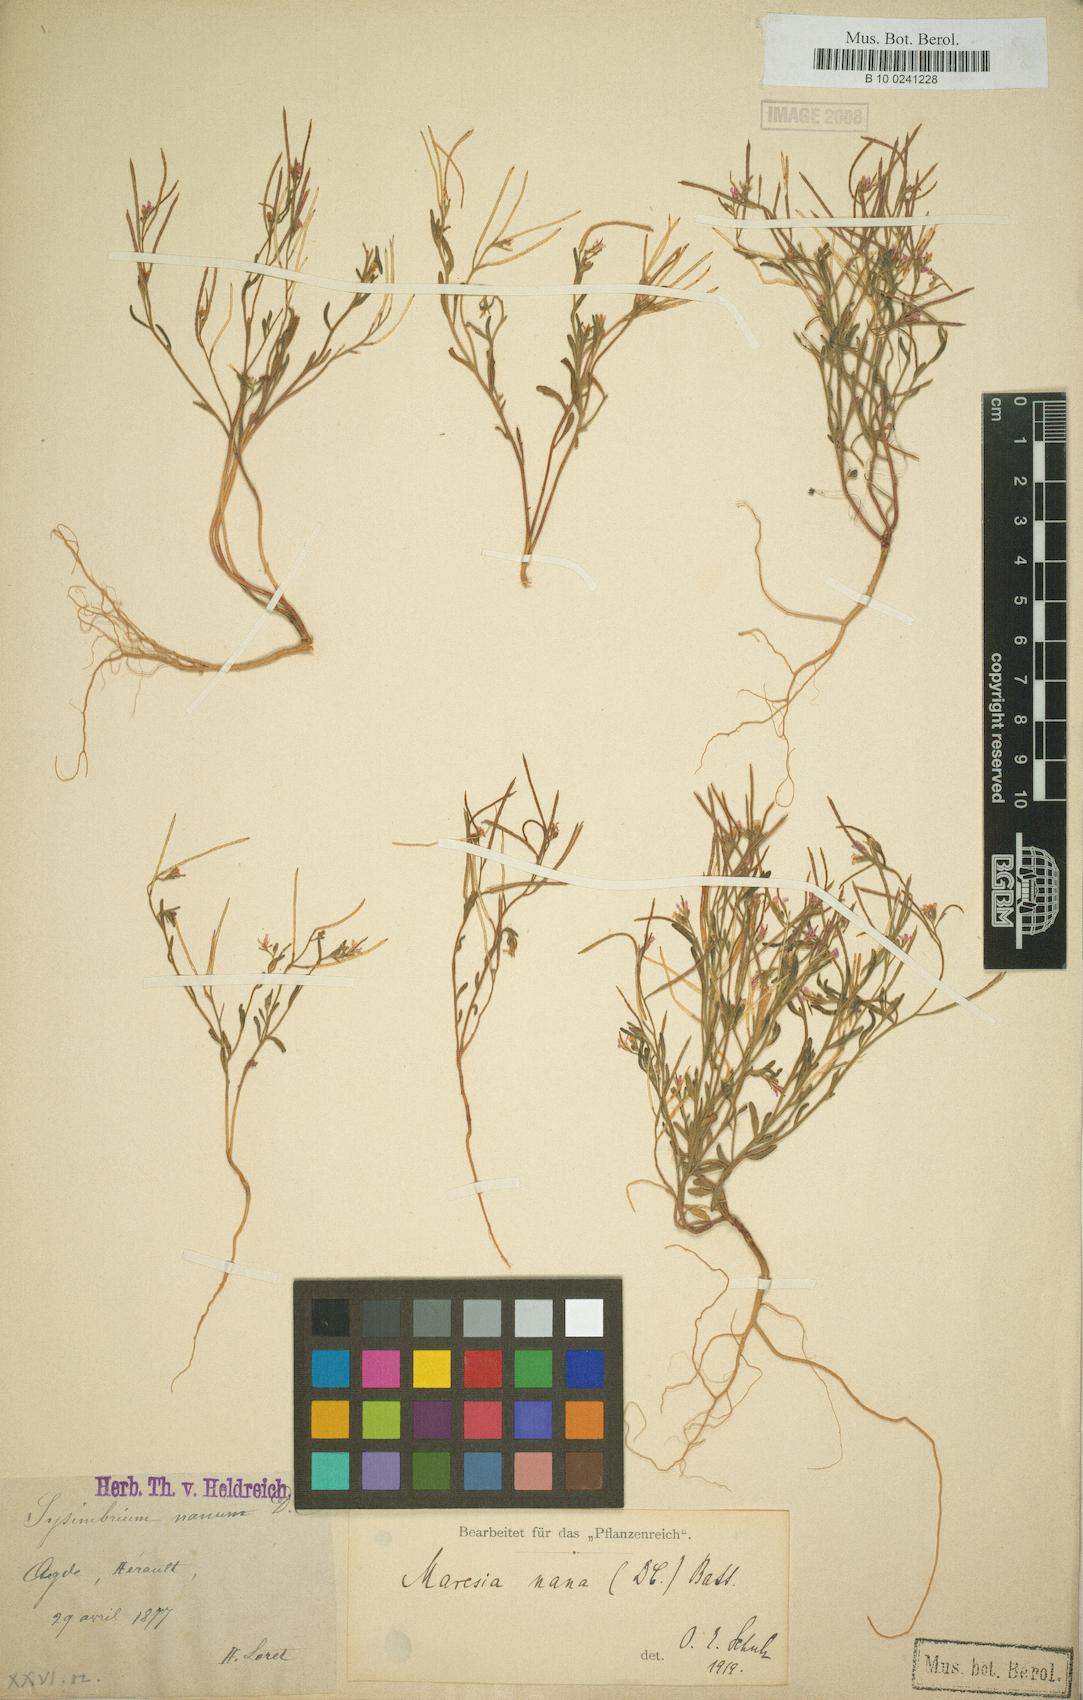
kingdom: Plantae
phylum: Tracheophyta
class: Magnoliopsida
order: Brassicales
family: Brassicaceae
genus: Maresia
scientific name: Maresia nana
